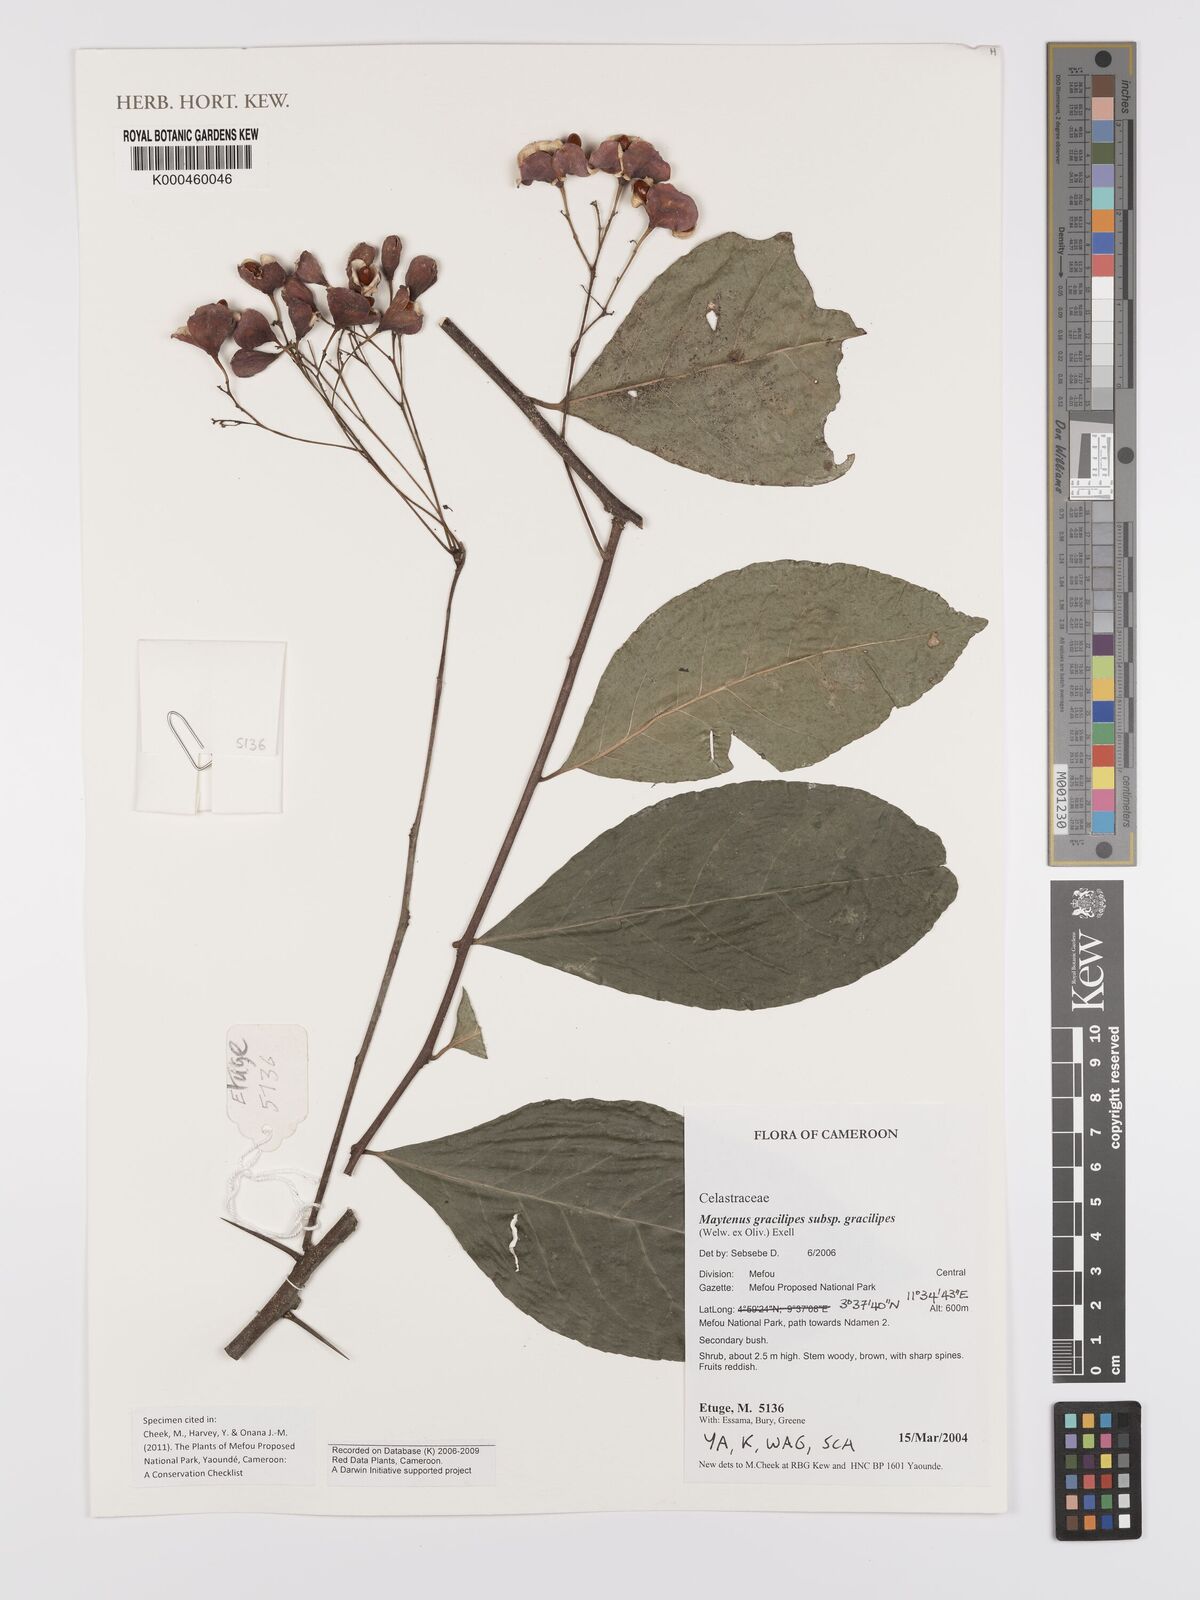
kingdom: Plantae
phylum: Tracheophyta
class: Magnoliopsida
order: Celastrales
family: Celastraceae
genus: Gymnosporia
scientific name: Gymnosporia gracilipes
